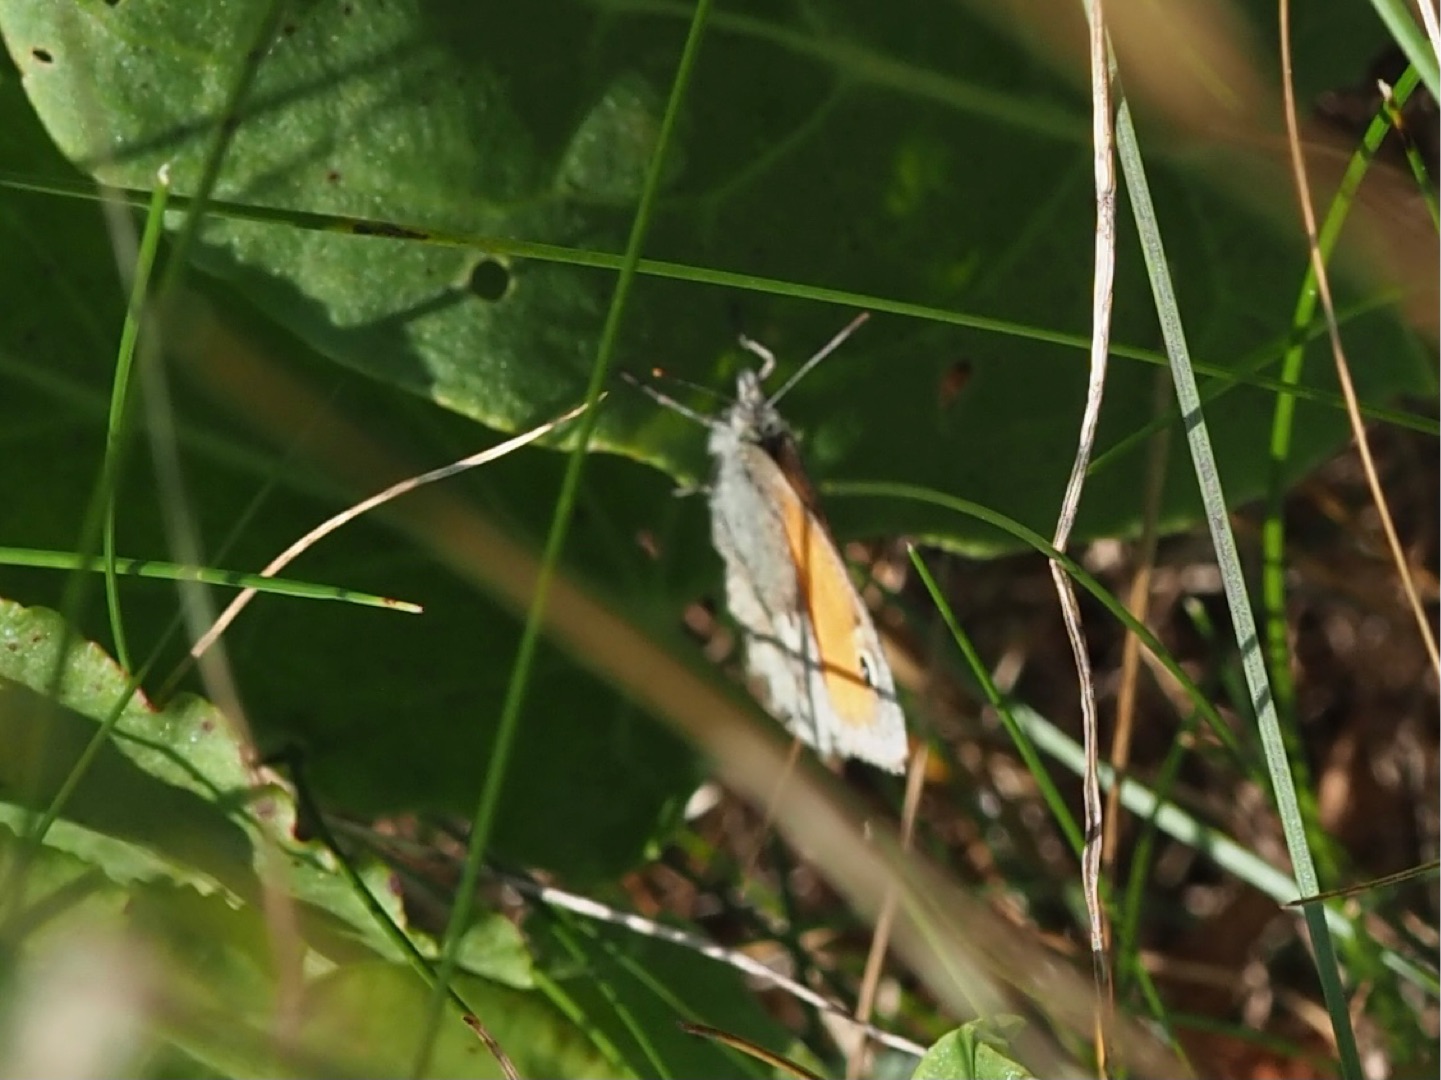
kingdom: Animalia
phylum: Arthropoda
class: Insecta
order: Lepidoptera
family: Nymphalidae
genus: Coenonympha
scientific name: Coenonympha pamphilus
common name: Okkergul randøje
